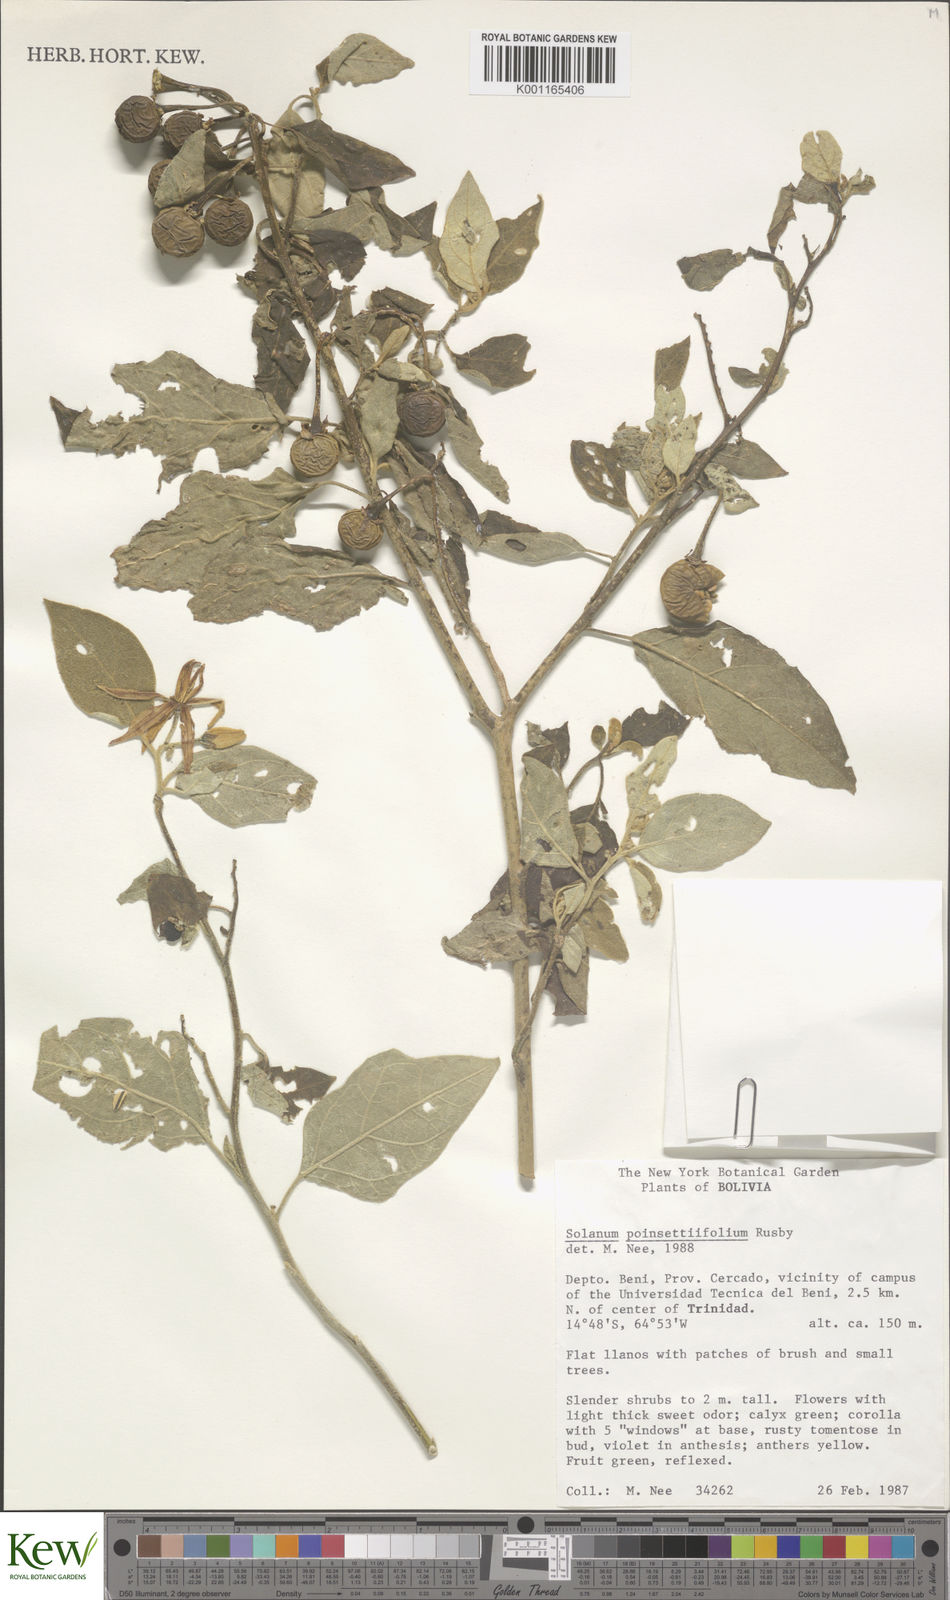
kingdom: Plantae
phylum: Tracheophyta
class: Magnoliopsida
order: Solanales
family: Solanaceae
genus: Solanum
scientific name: Solanum poinsettiifolium
